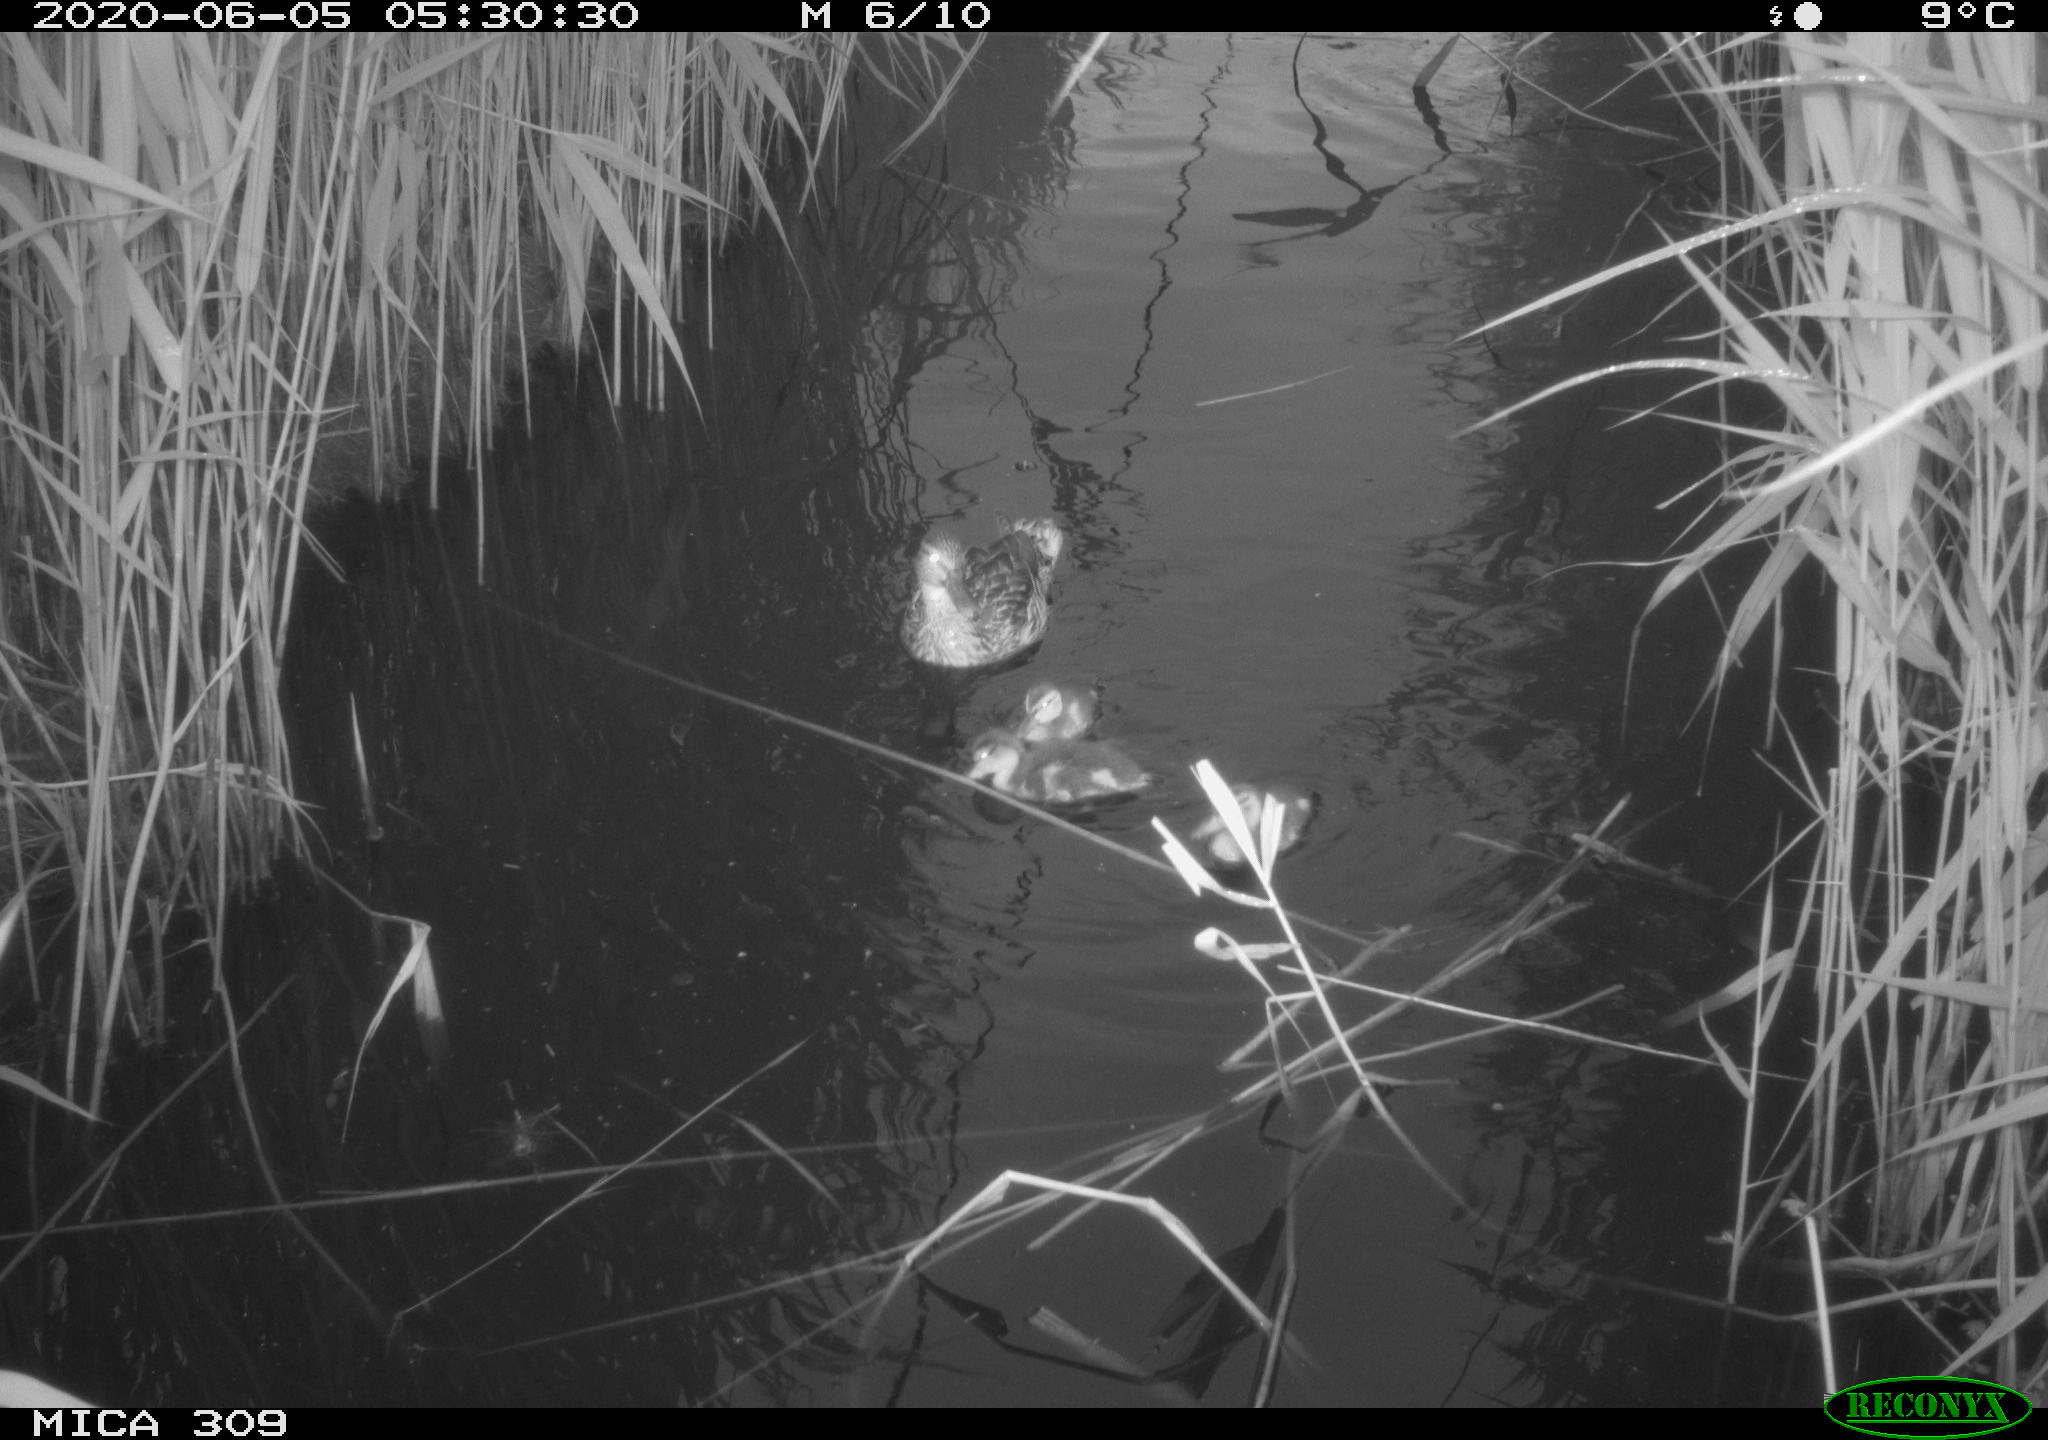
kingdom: Animalia
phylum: Chordata
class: Aves
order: Anseriformes
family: Anatidae
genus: Anas
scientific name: Anas platyrhynchos
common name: Mallard
